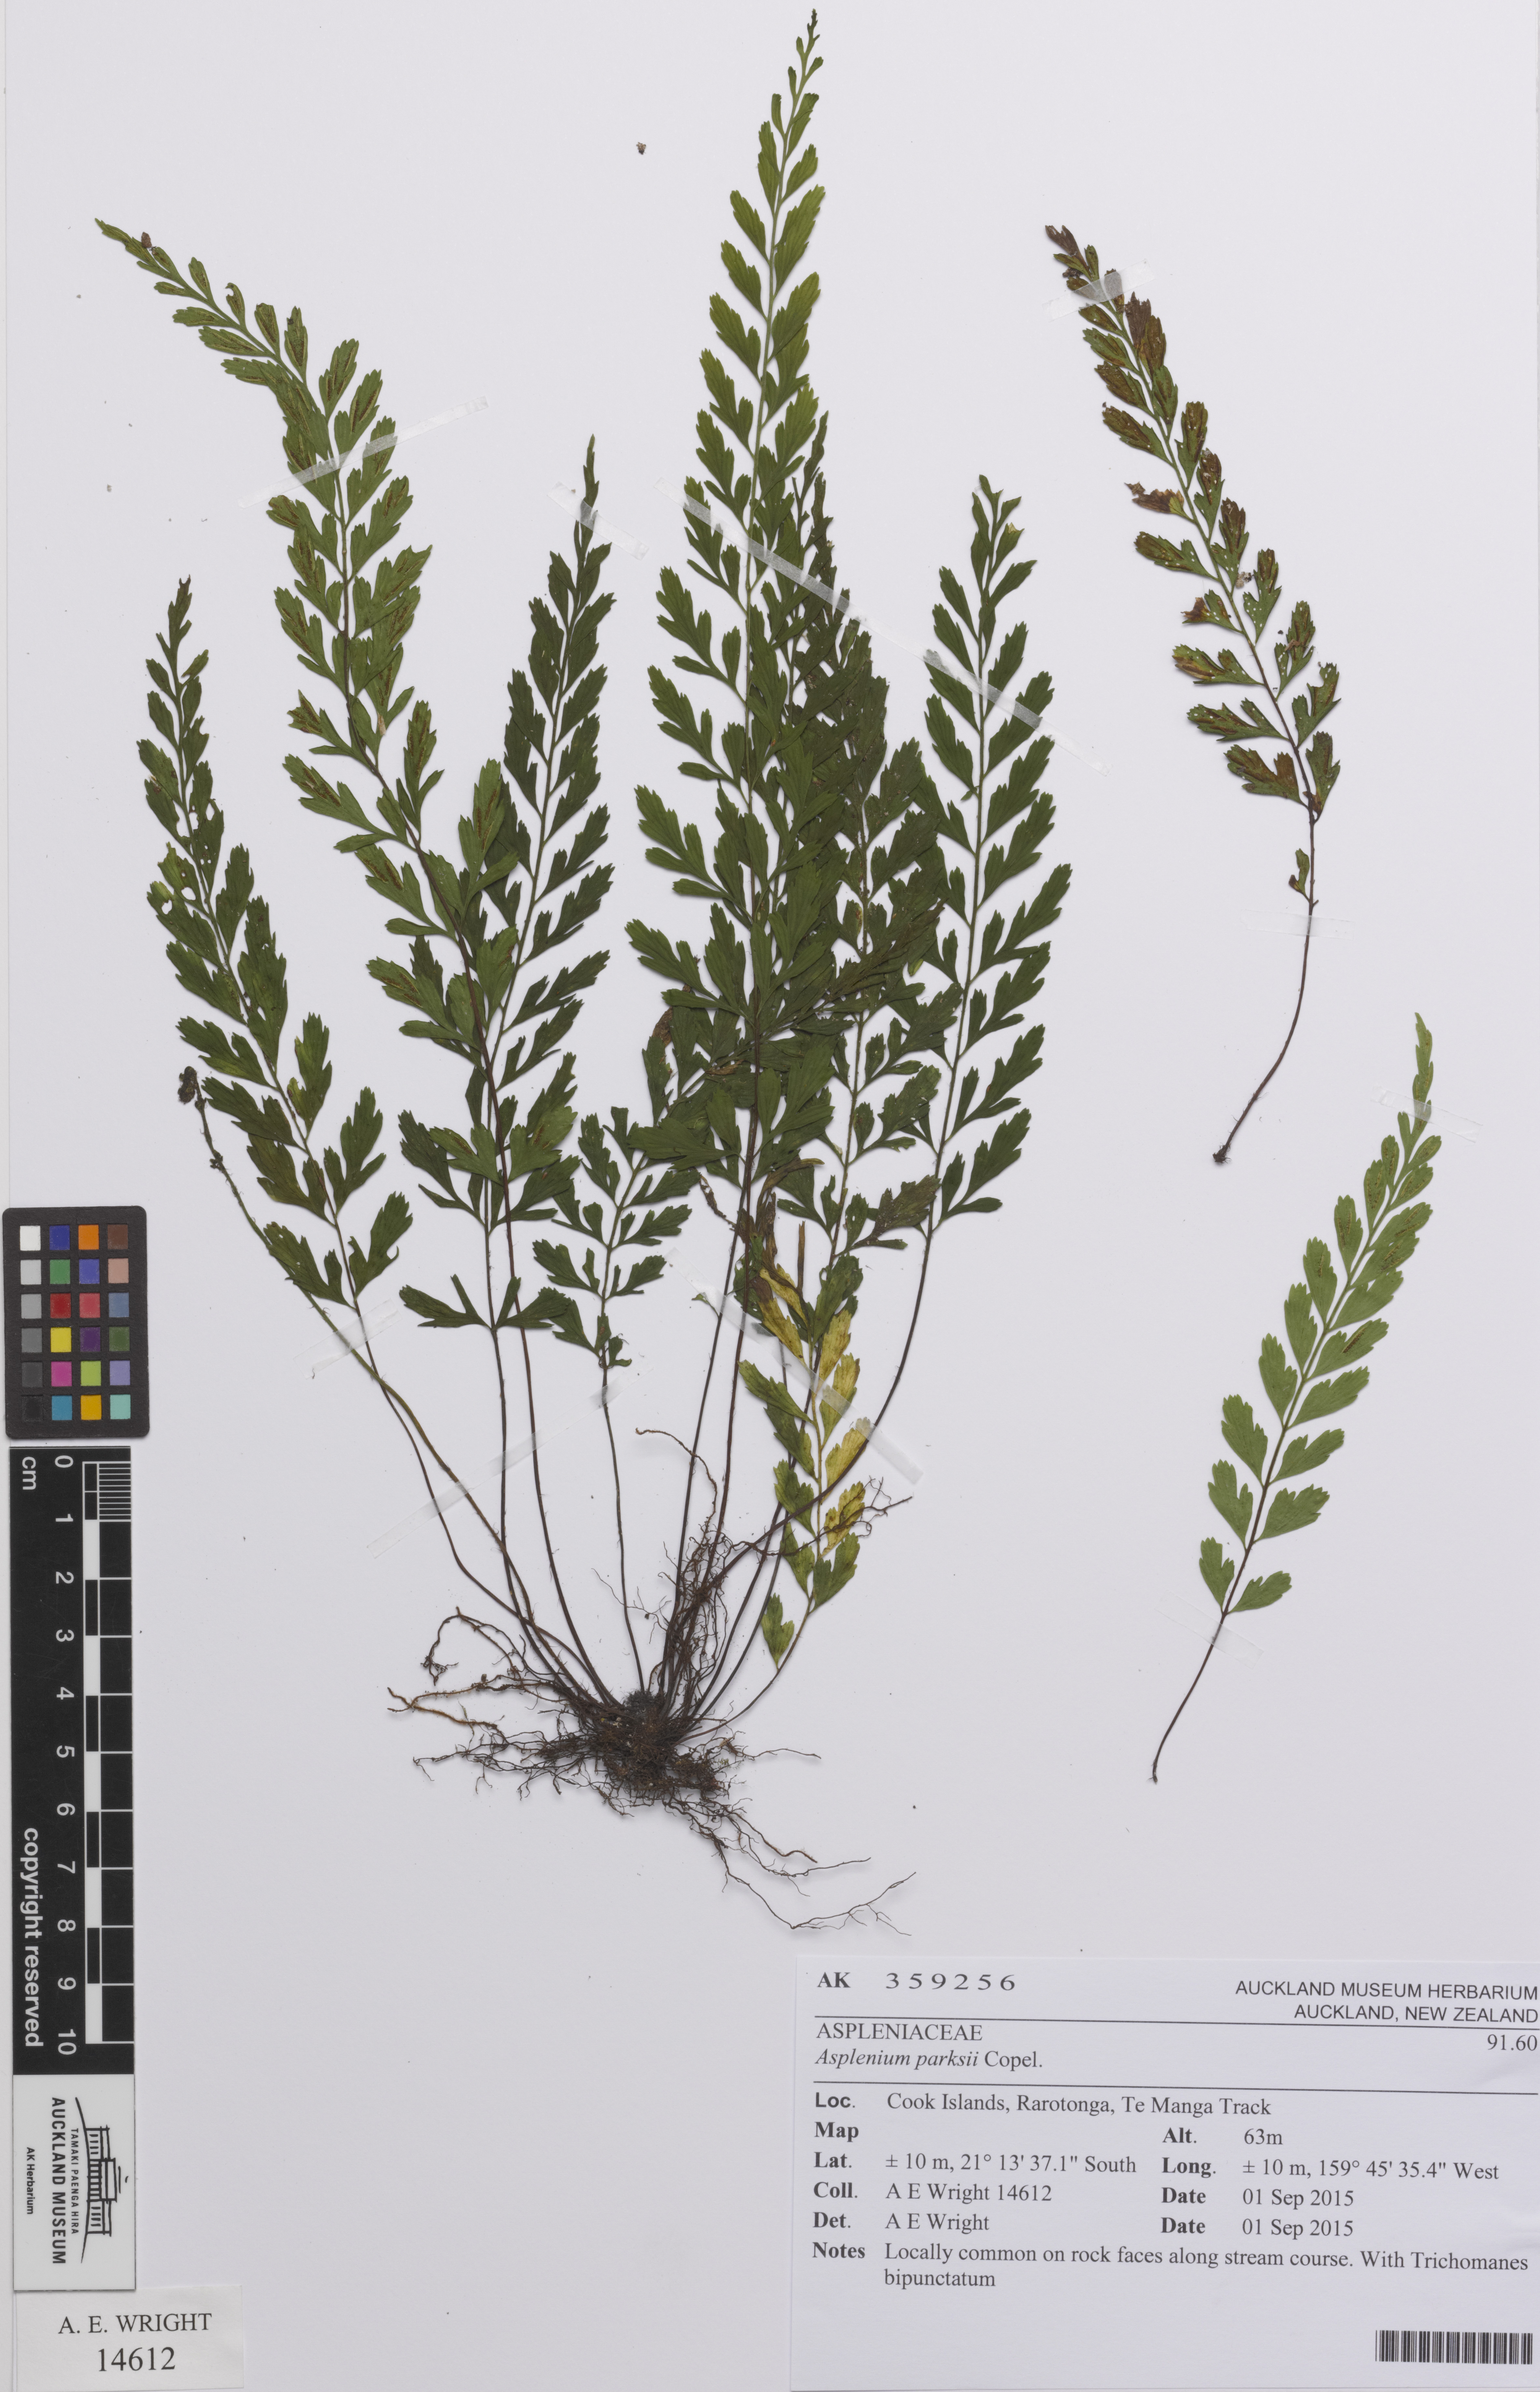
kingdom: Plantae
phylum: Tracheophyta
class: Polypodiopsida
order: Polypodiales
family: Aspleniaceae
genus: Asplenium
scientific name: Asplenium parksii
